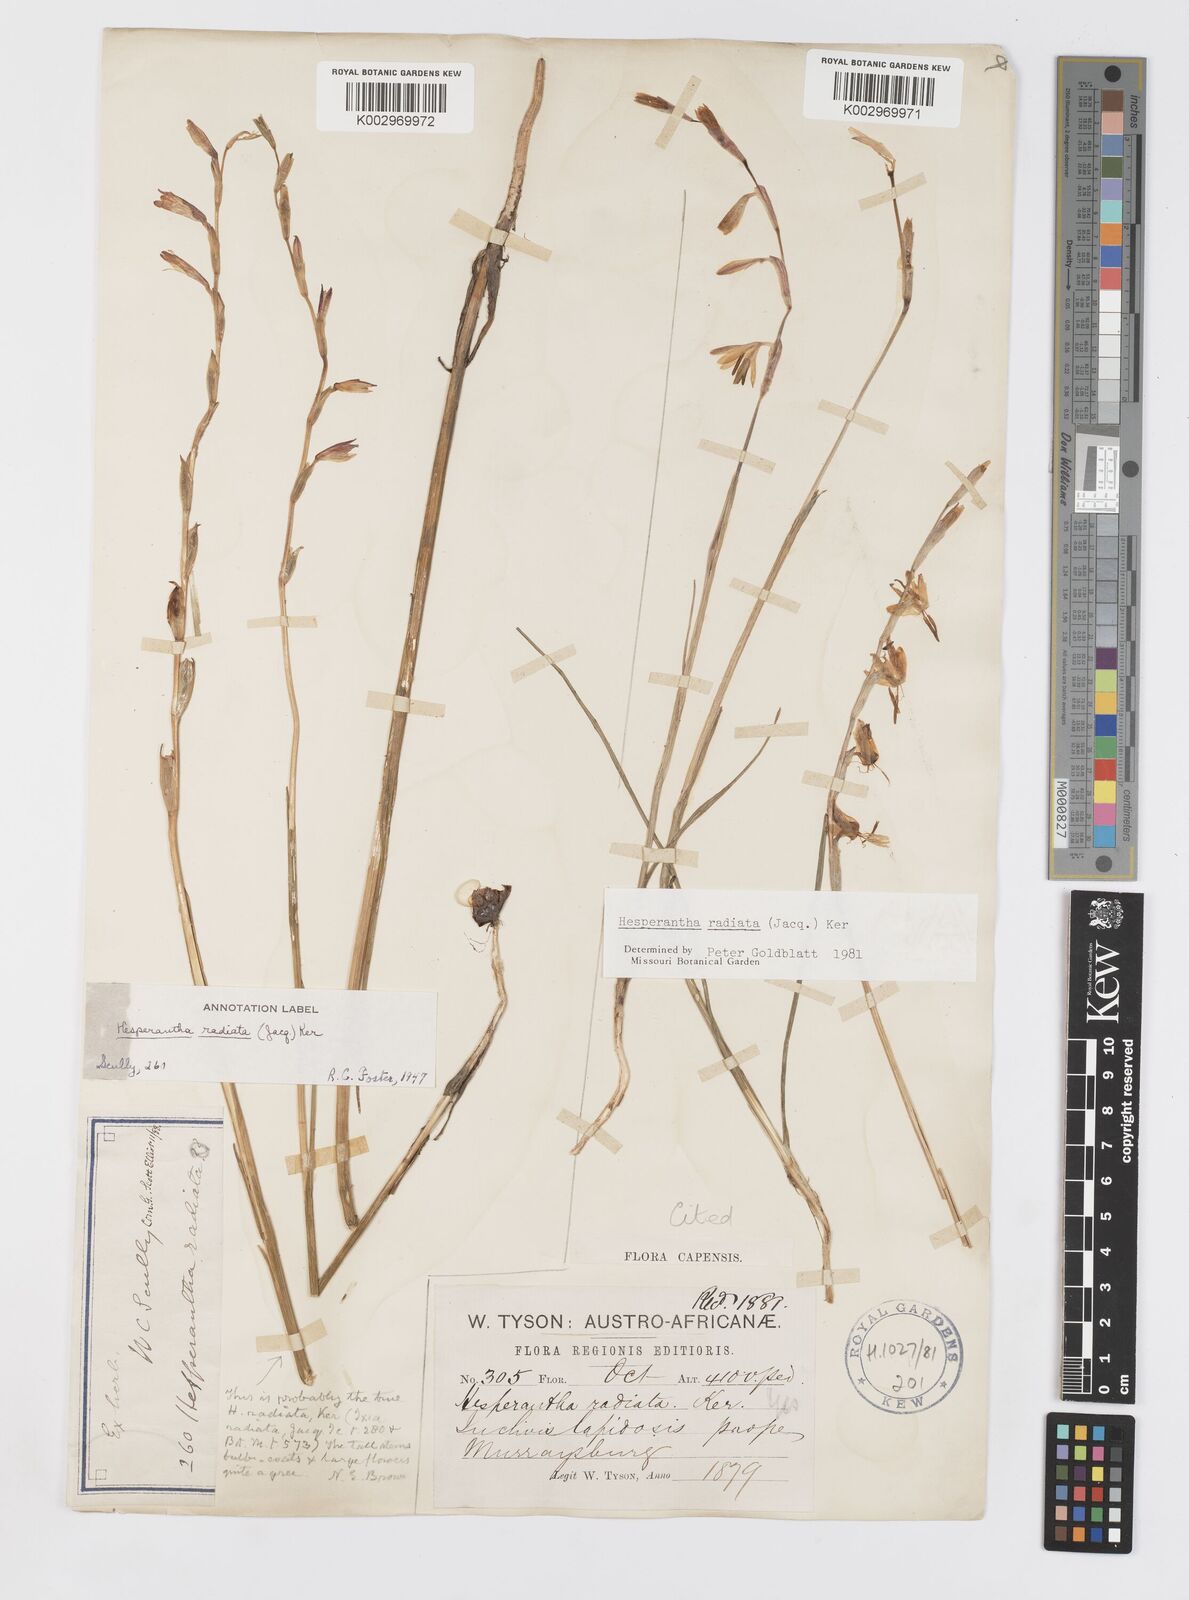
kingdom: Plantae
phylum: Tracheophyta
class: Liliopsida
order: Asparagales
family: Iridaceae
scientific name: Iridaceae
